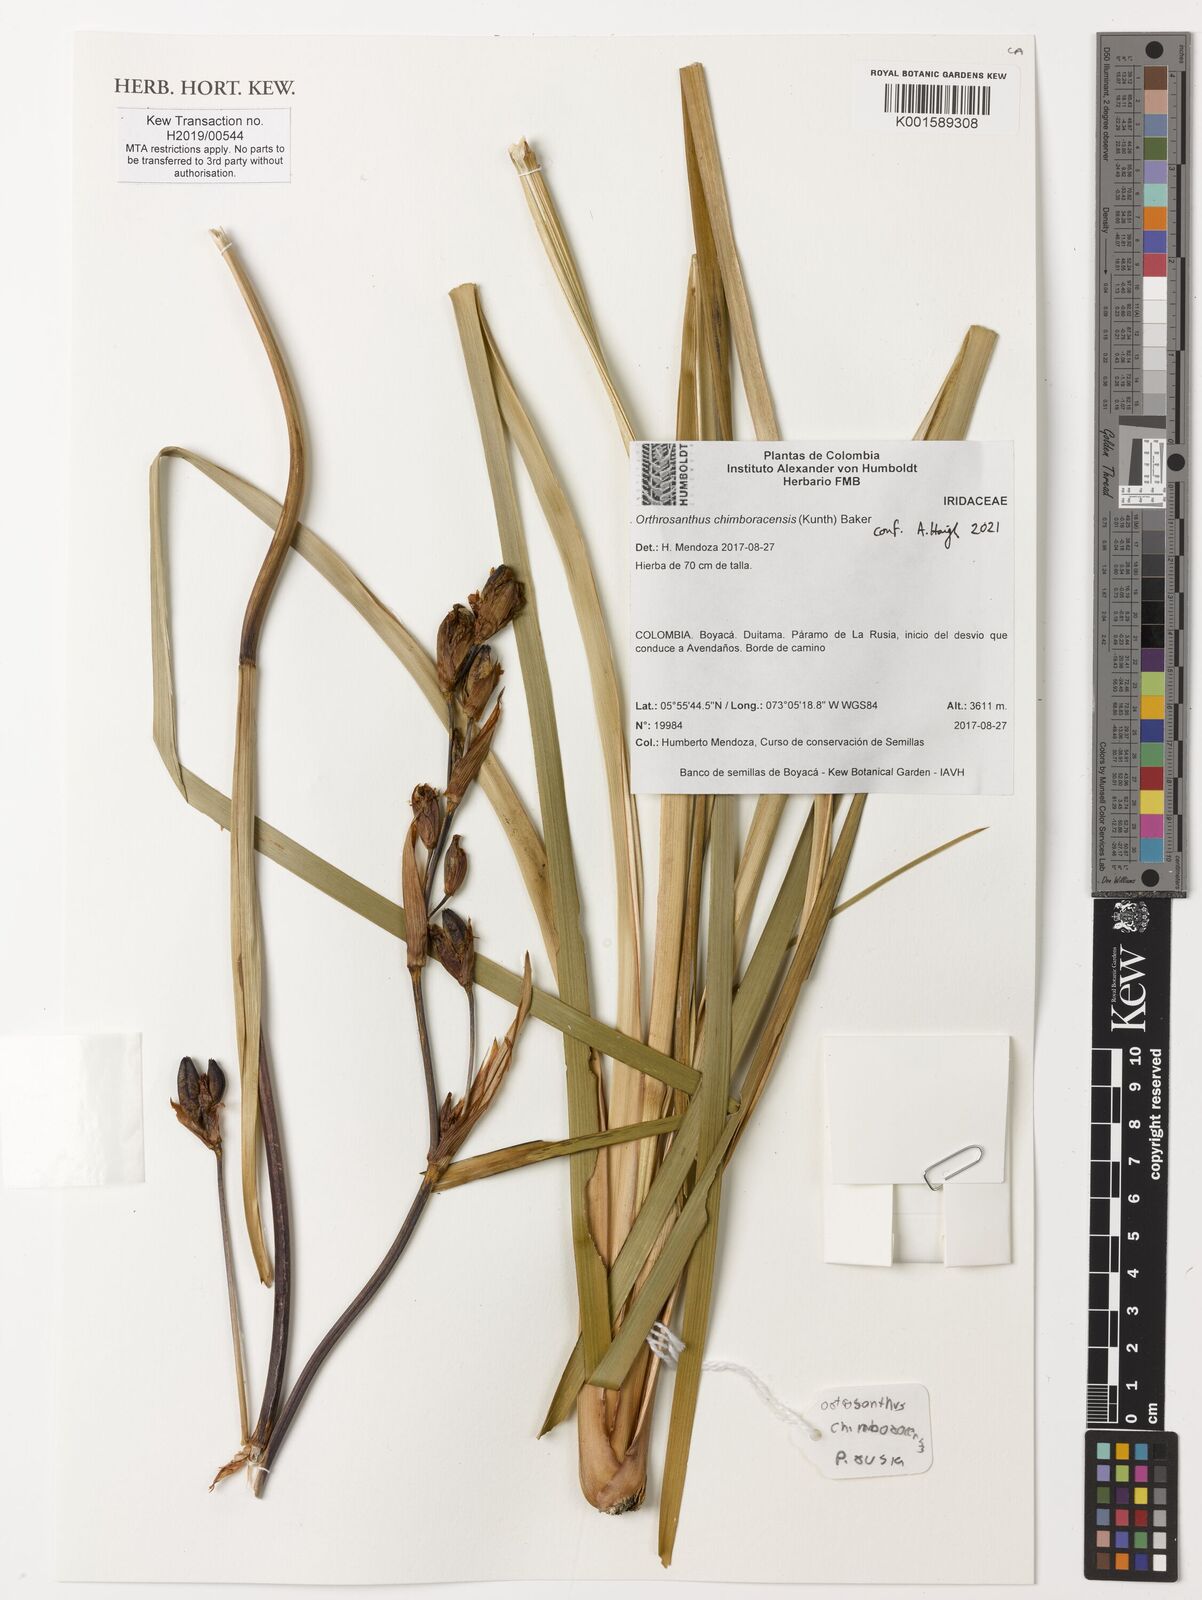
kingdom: Plantae
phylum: Tracheophyta
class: Liliopsida
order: Asparagales
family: Iridaceae
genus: Orthrosanthus
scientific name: Orthrosanthus chimboracensis
